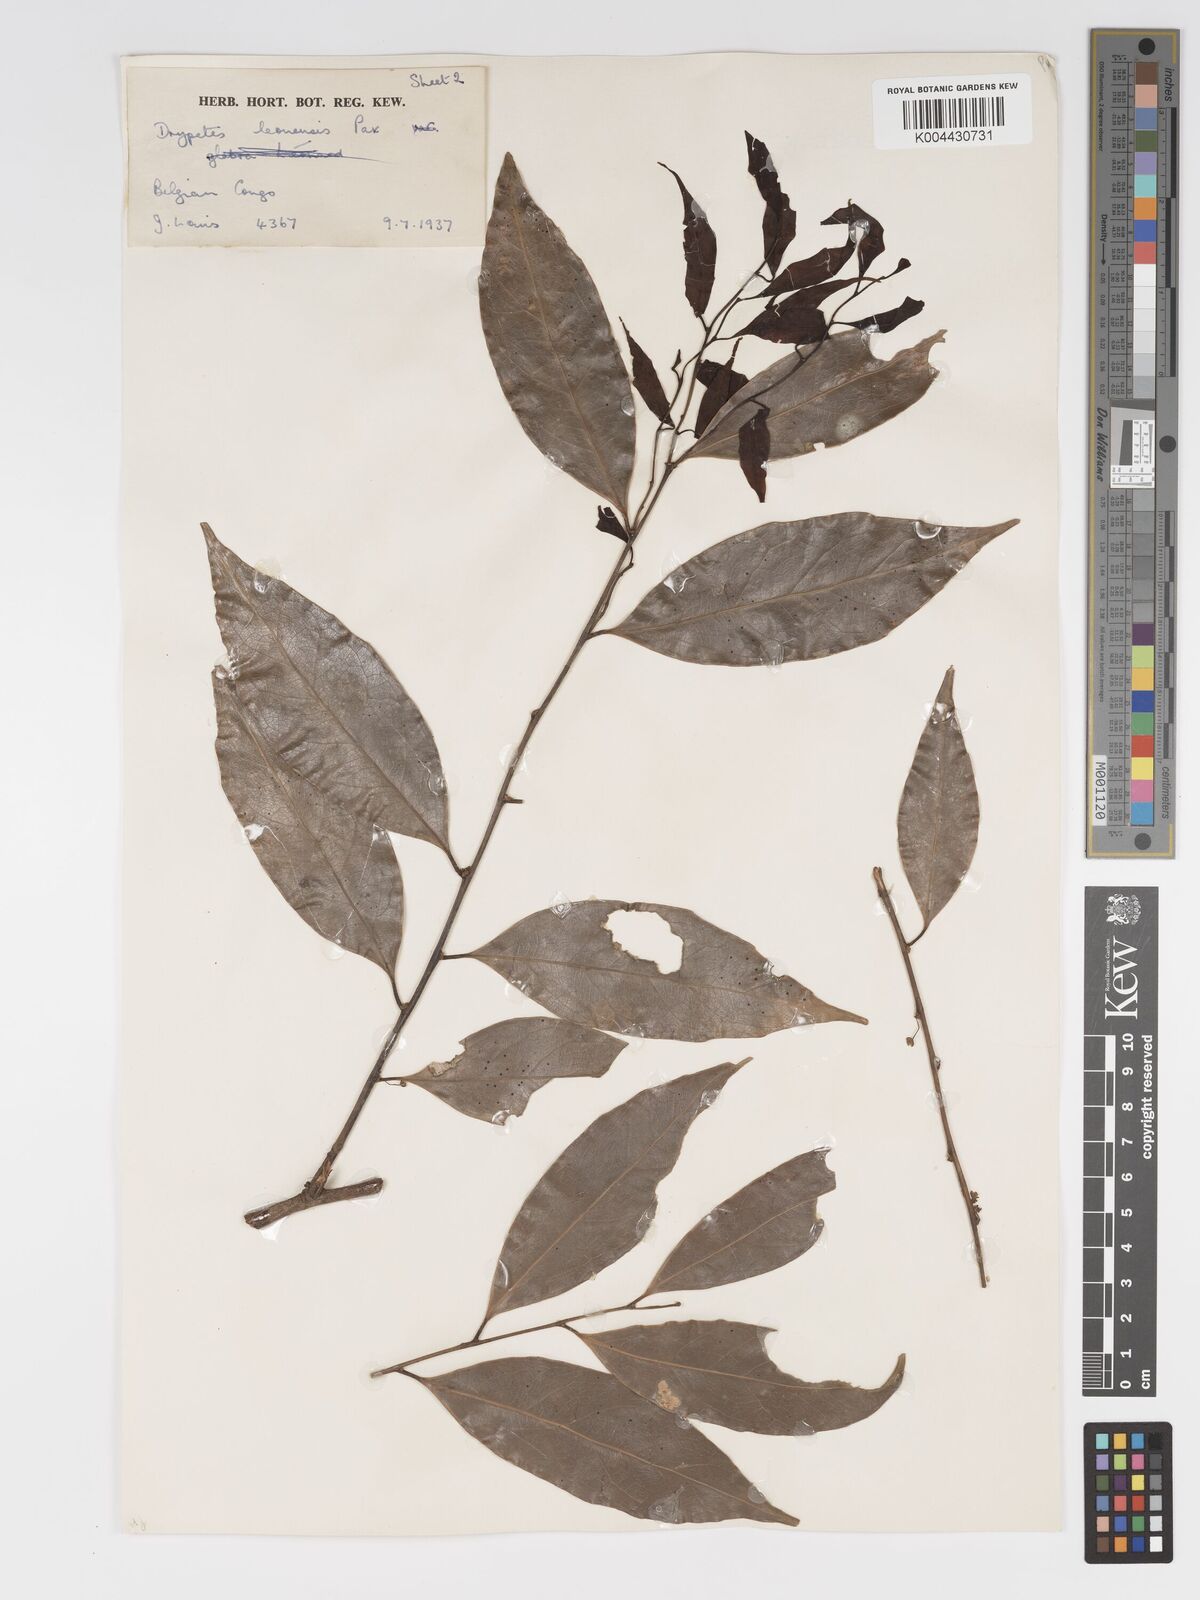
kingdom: Plantae
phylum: Tracheophyta
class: Magnoliopsida
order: Malpighiales
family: Putranjivaceae
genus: Drypetes
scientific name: Drypetes leonensis
